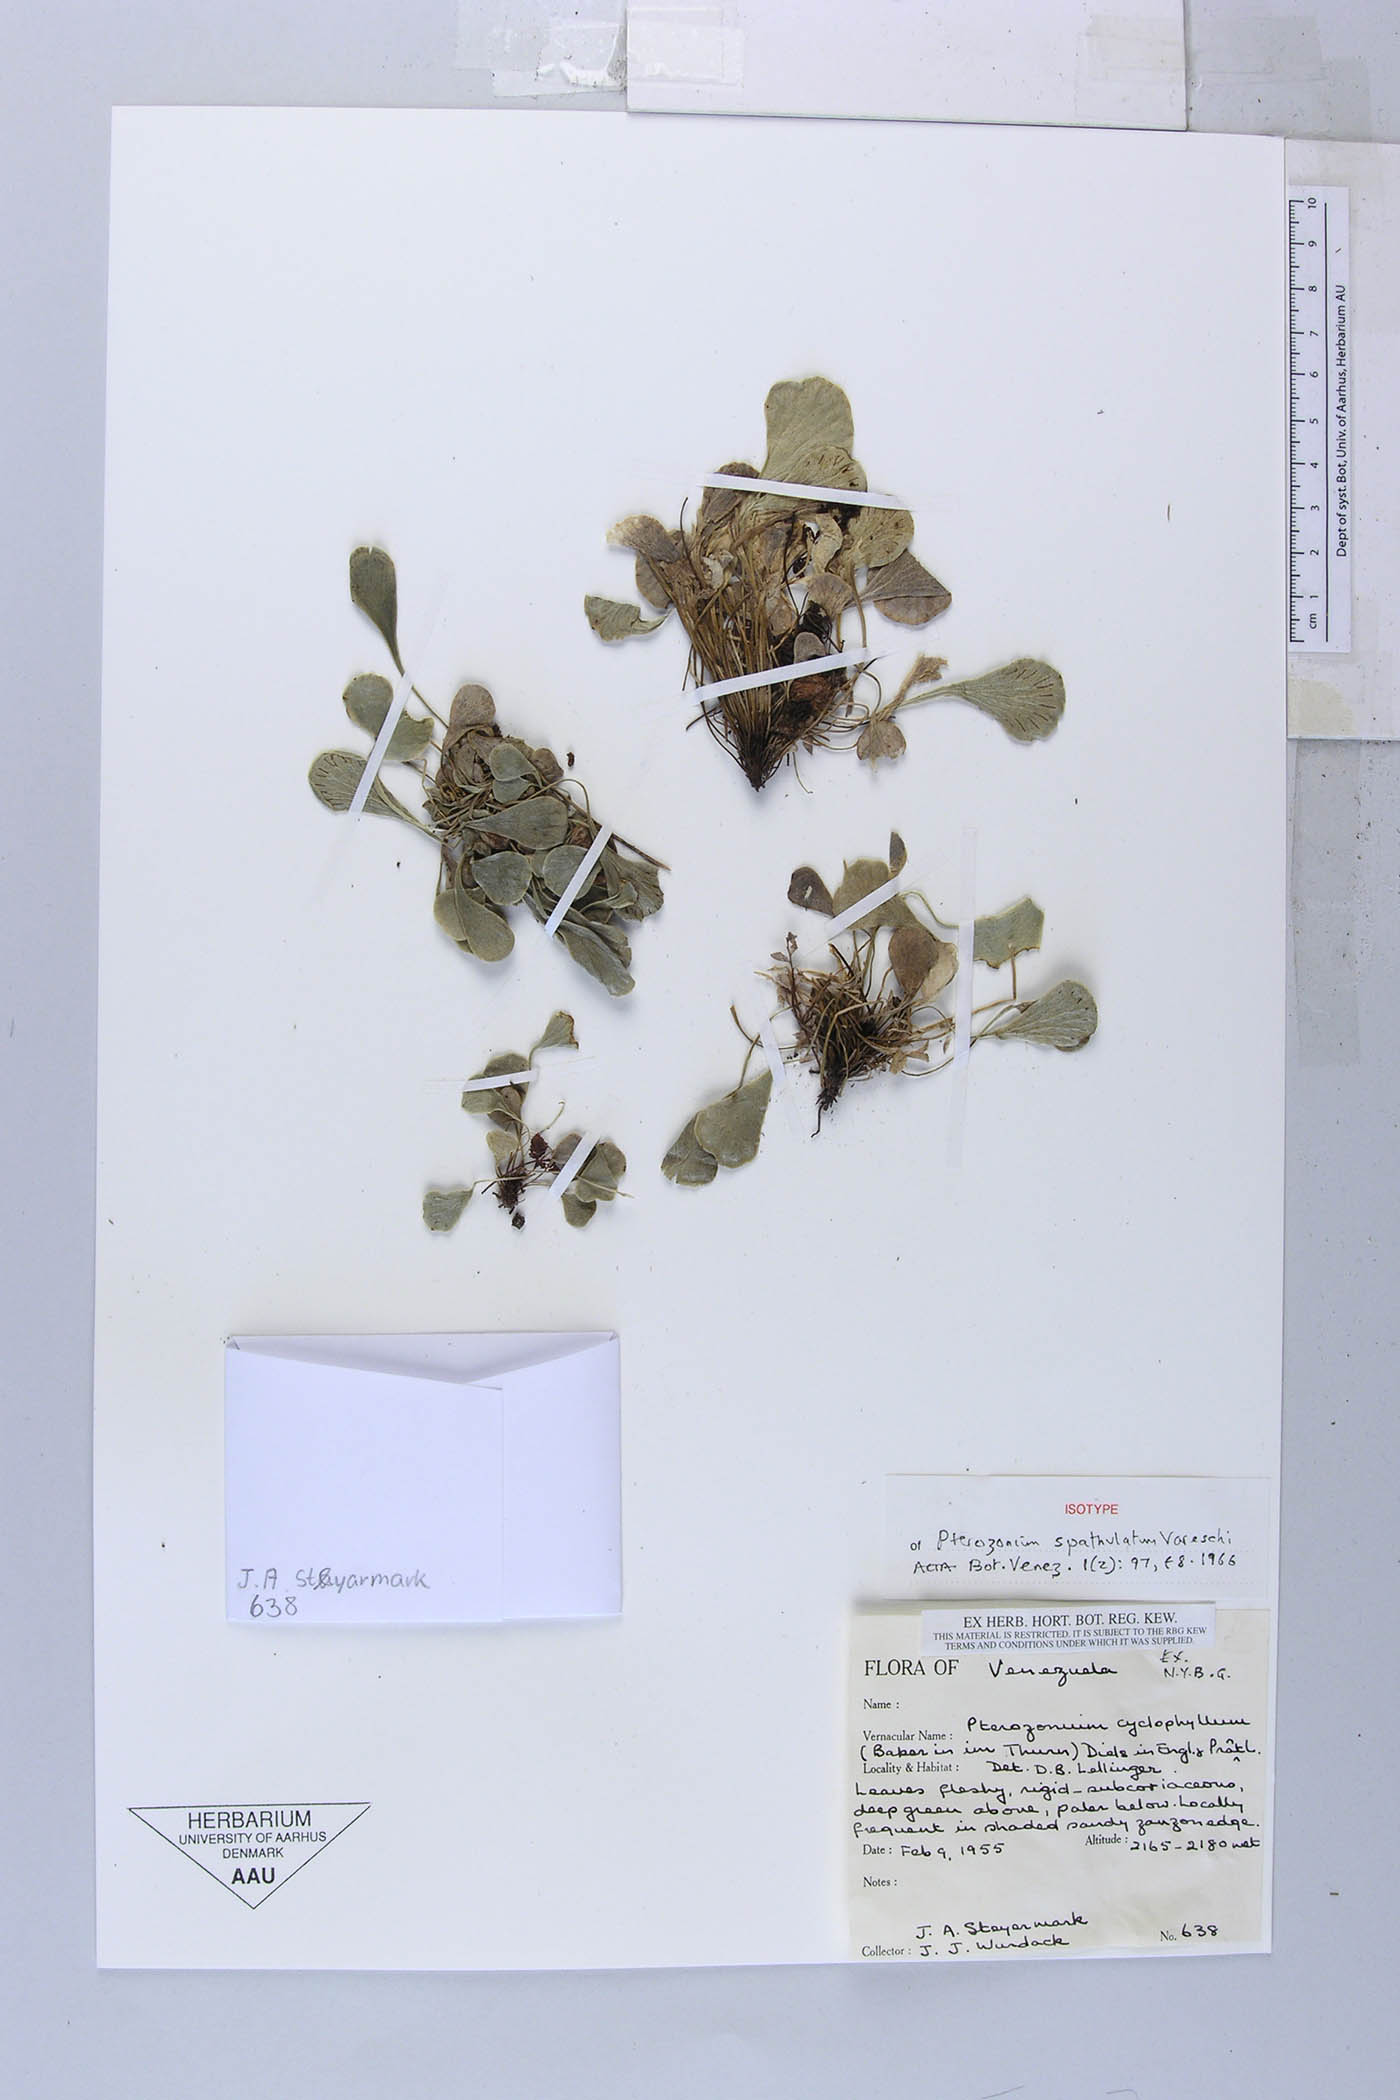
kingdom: Plantae
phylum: Tracheophyta
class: Polypodiopsida
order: Polypodiales
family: Pteridaceae
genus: Pterozonium
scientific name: Pterozonium cyclophyllum
